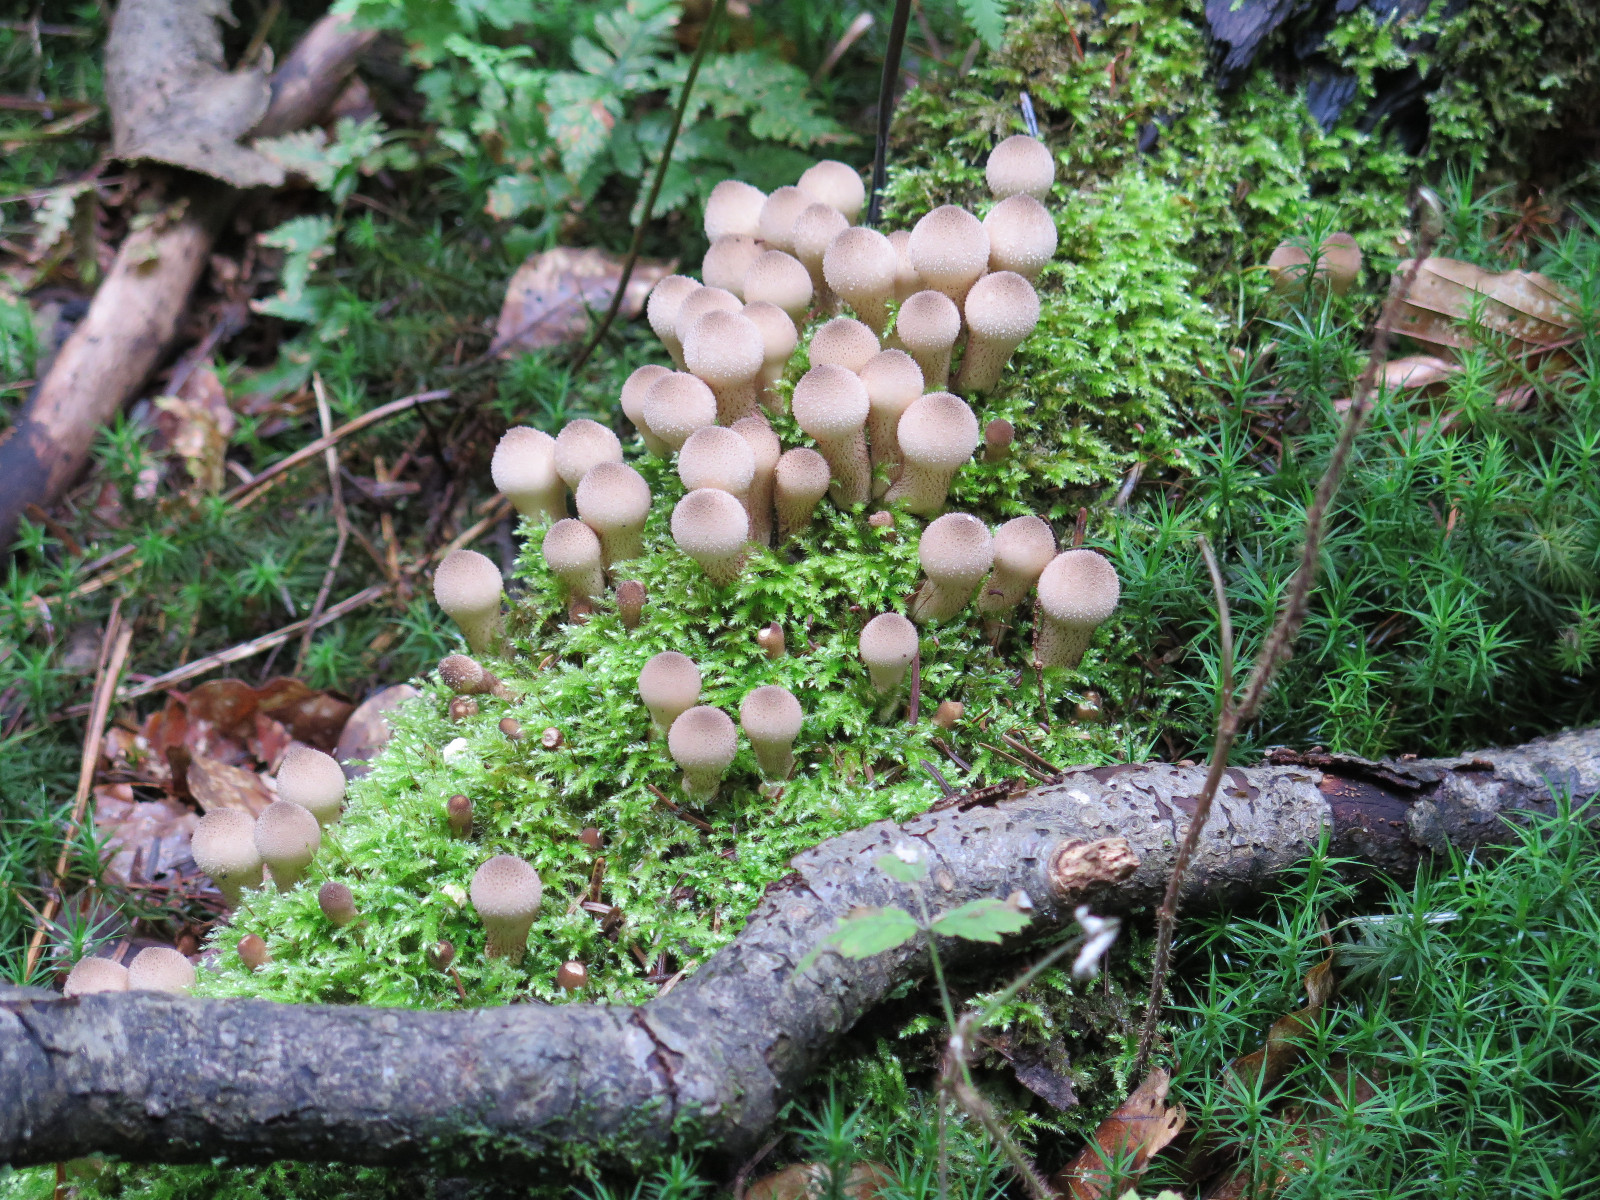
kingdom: Fungi
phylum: Basidiomycota
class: Agaricomycetes
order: Agaricales
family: Lycoperdaceae
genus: Apioperdon
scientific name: Apioperdon pyriforme
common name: pære-støvbold
